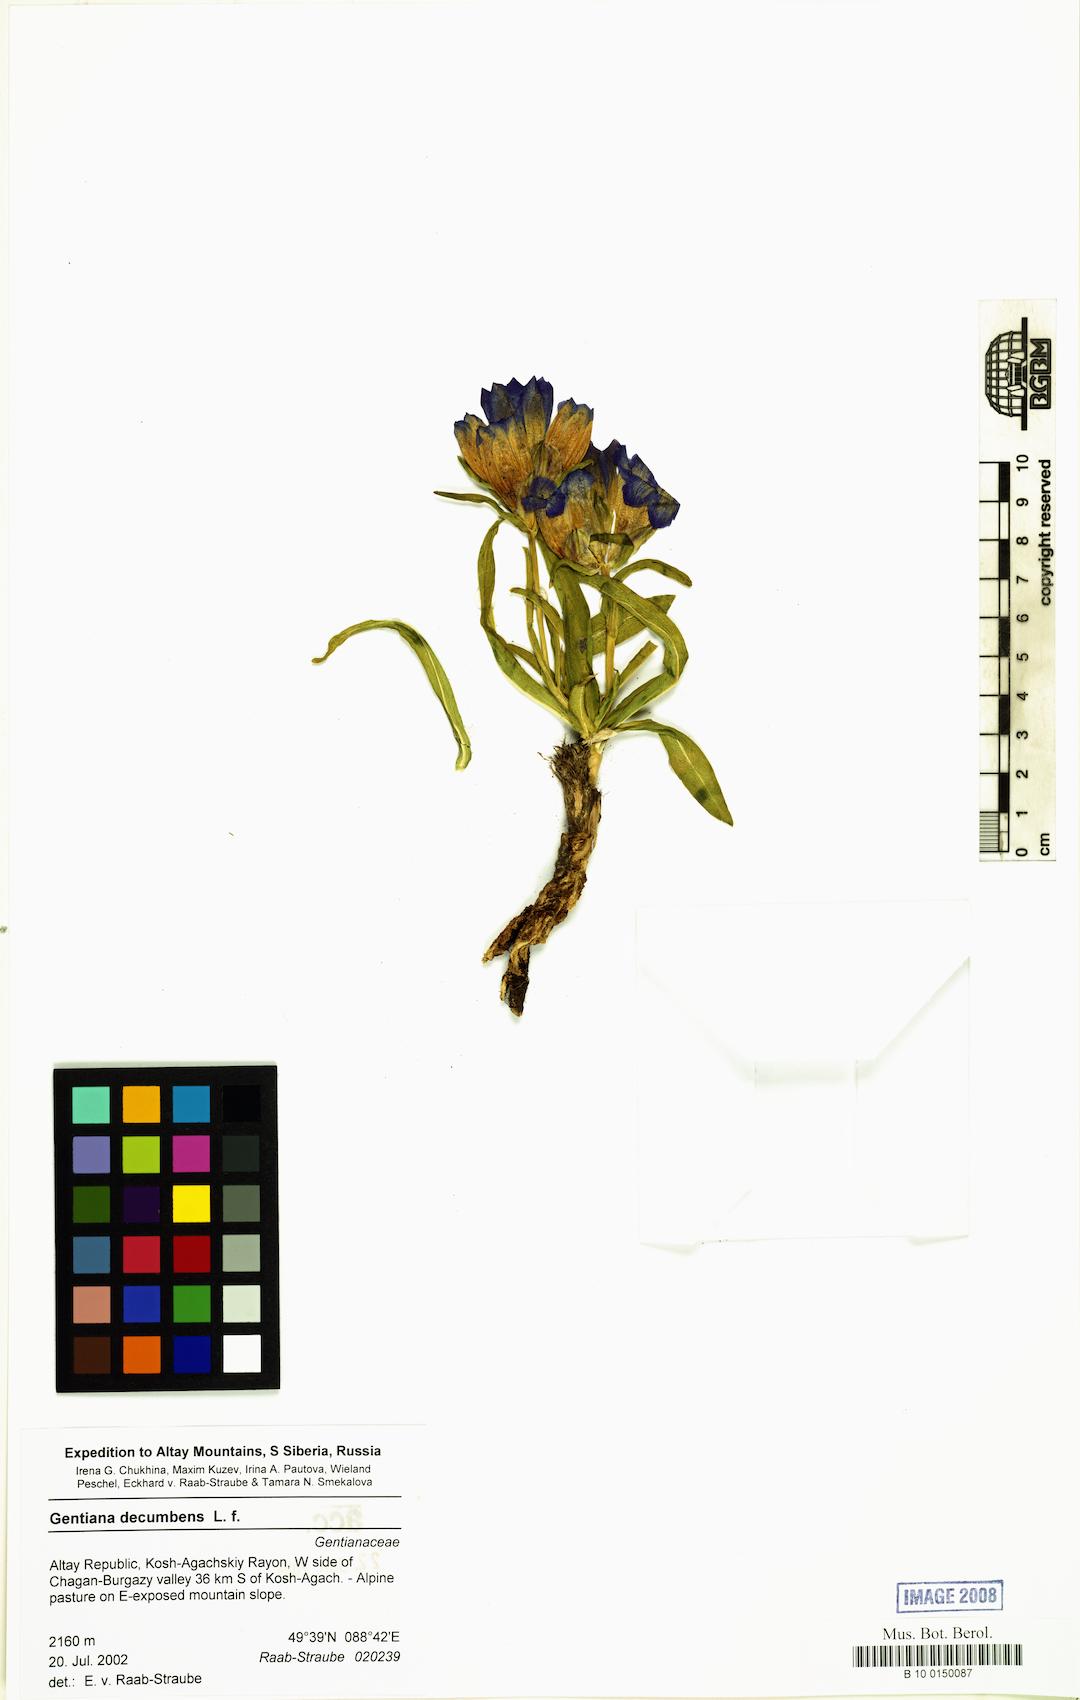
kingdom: Plantae
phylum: Tracheophyta
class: Magnoliopsida
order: Gentianales
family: Gentianaceae
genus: Gentiana
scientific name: Gentiana decumbens
